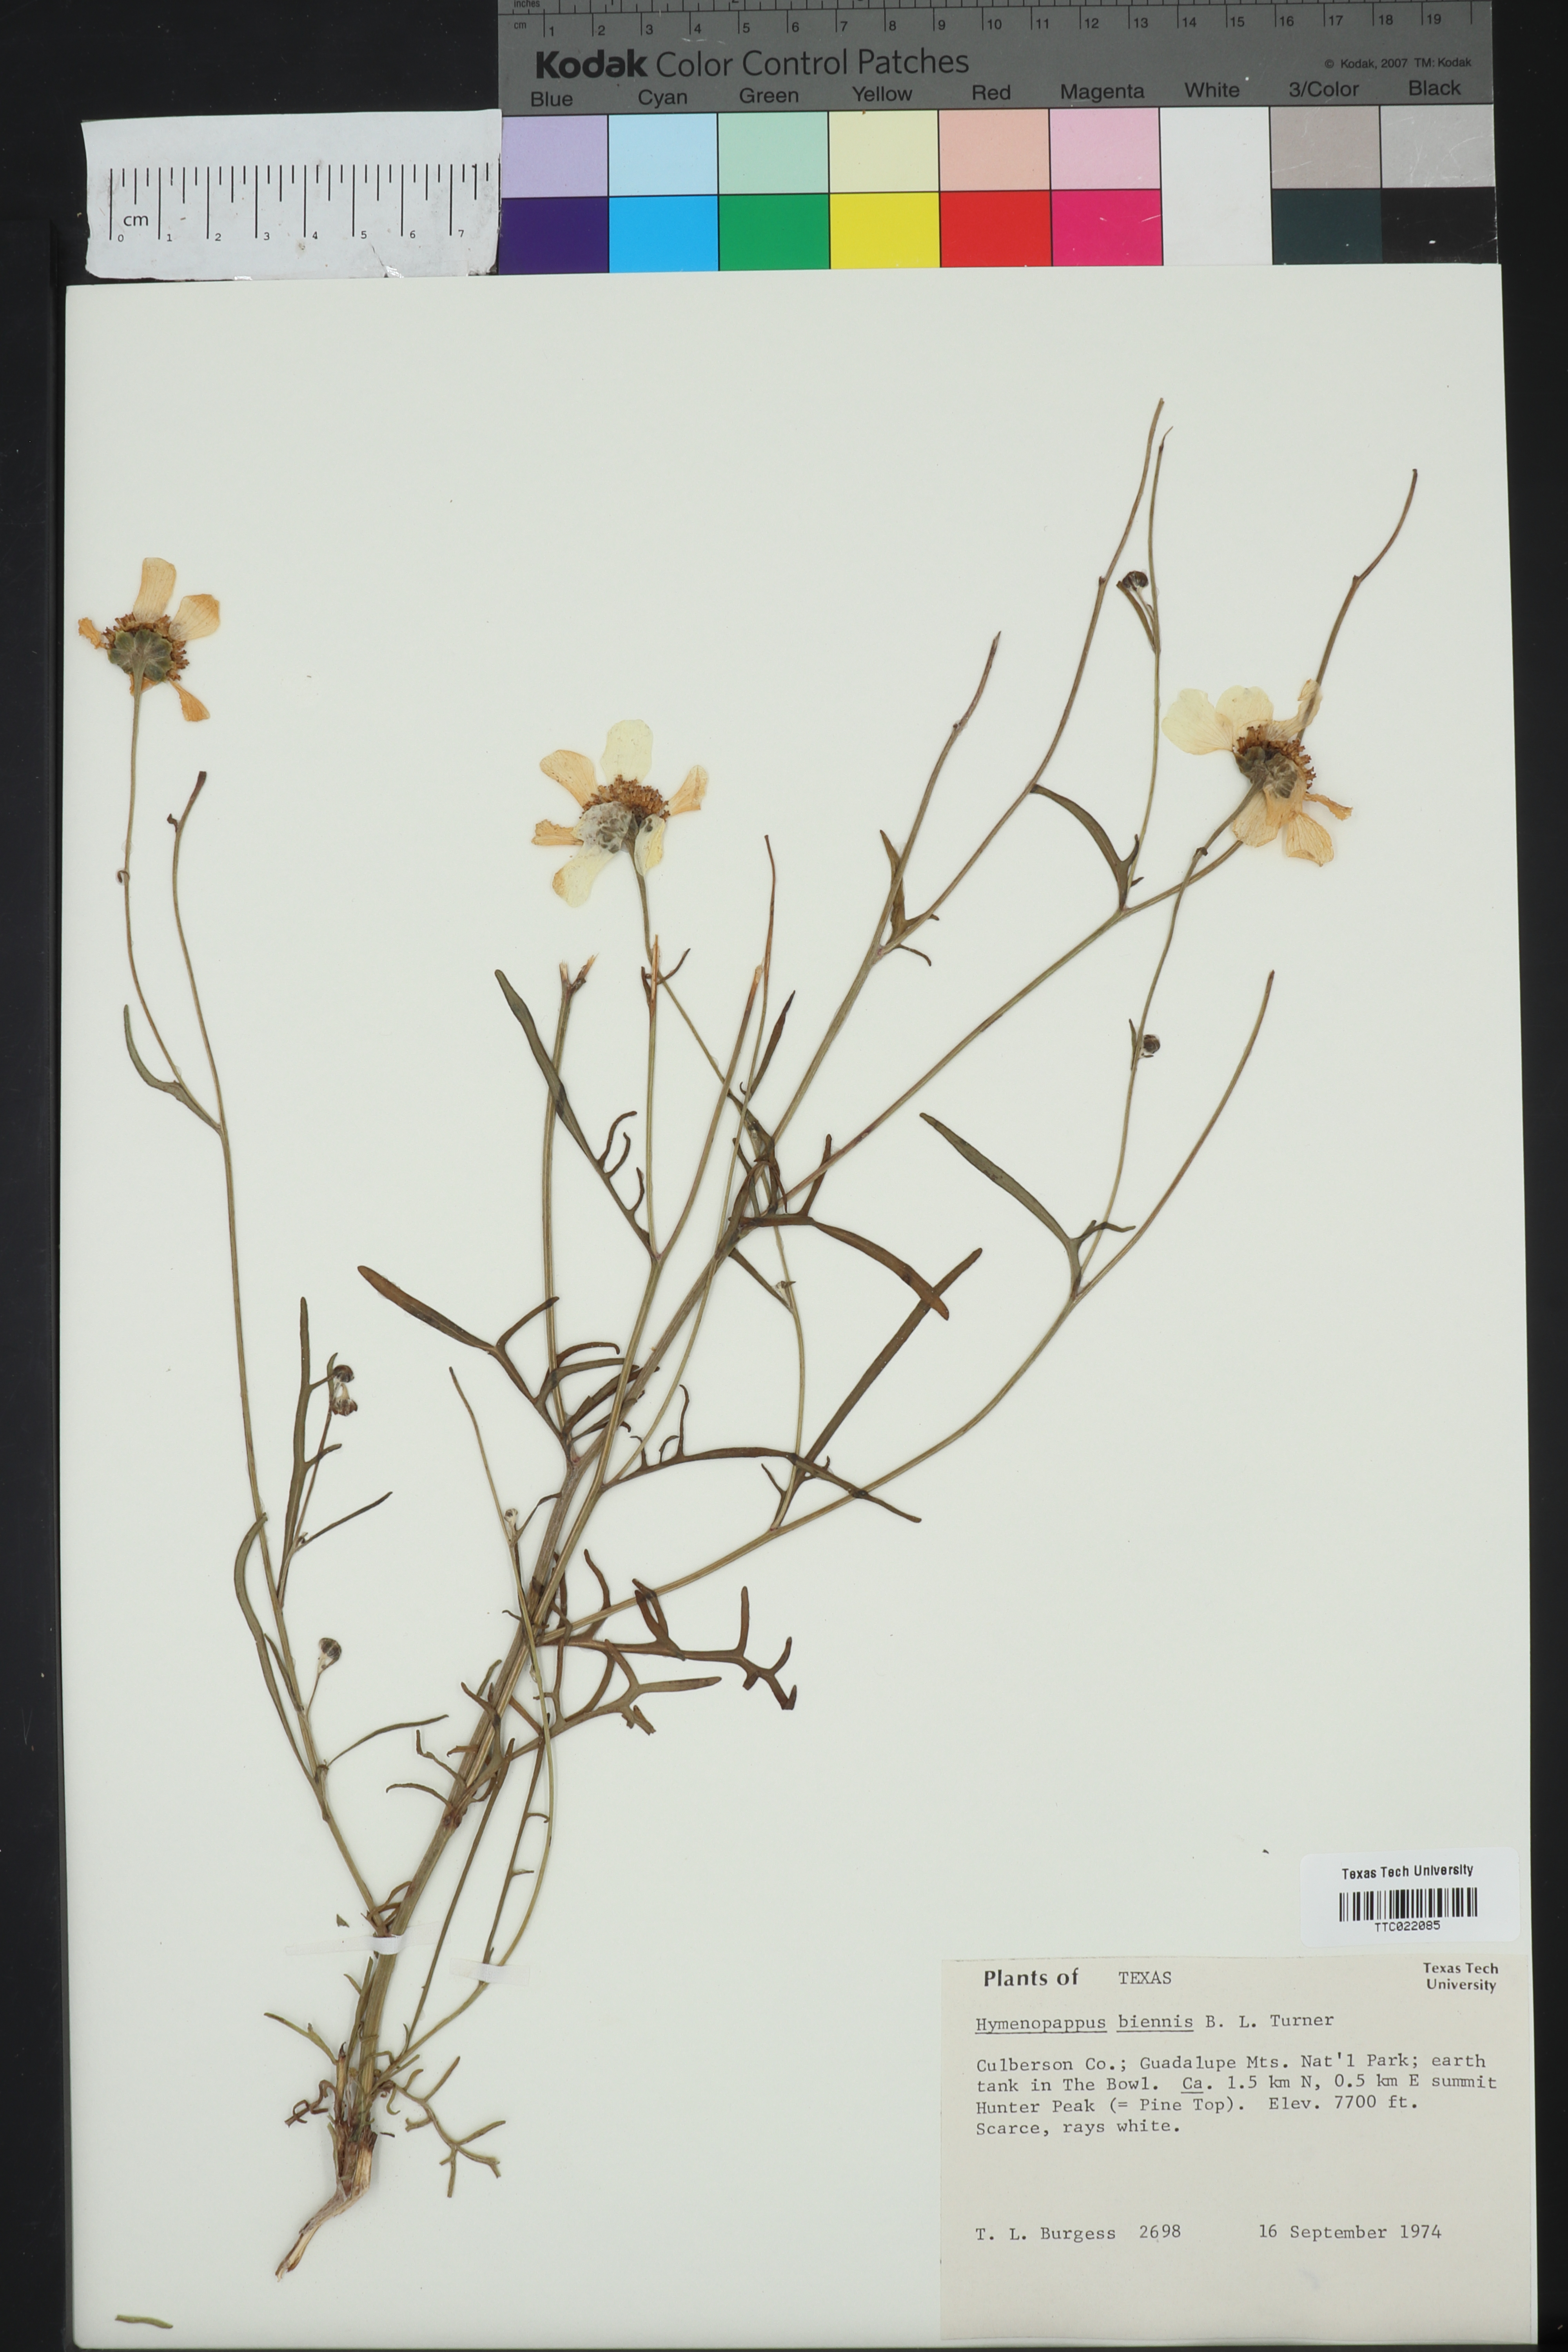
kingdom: Plantae
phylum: Tracheophyta
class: Magnoliopsida
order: Asterales
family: Asteraceae
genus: Hymenopappus
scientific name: Hymenopappus biennis
